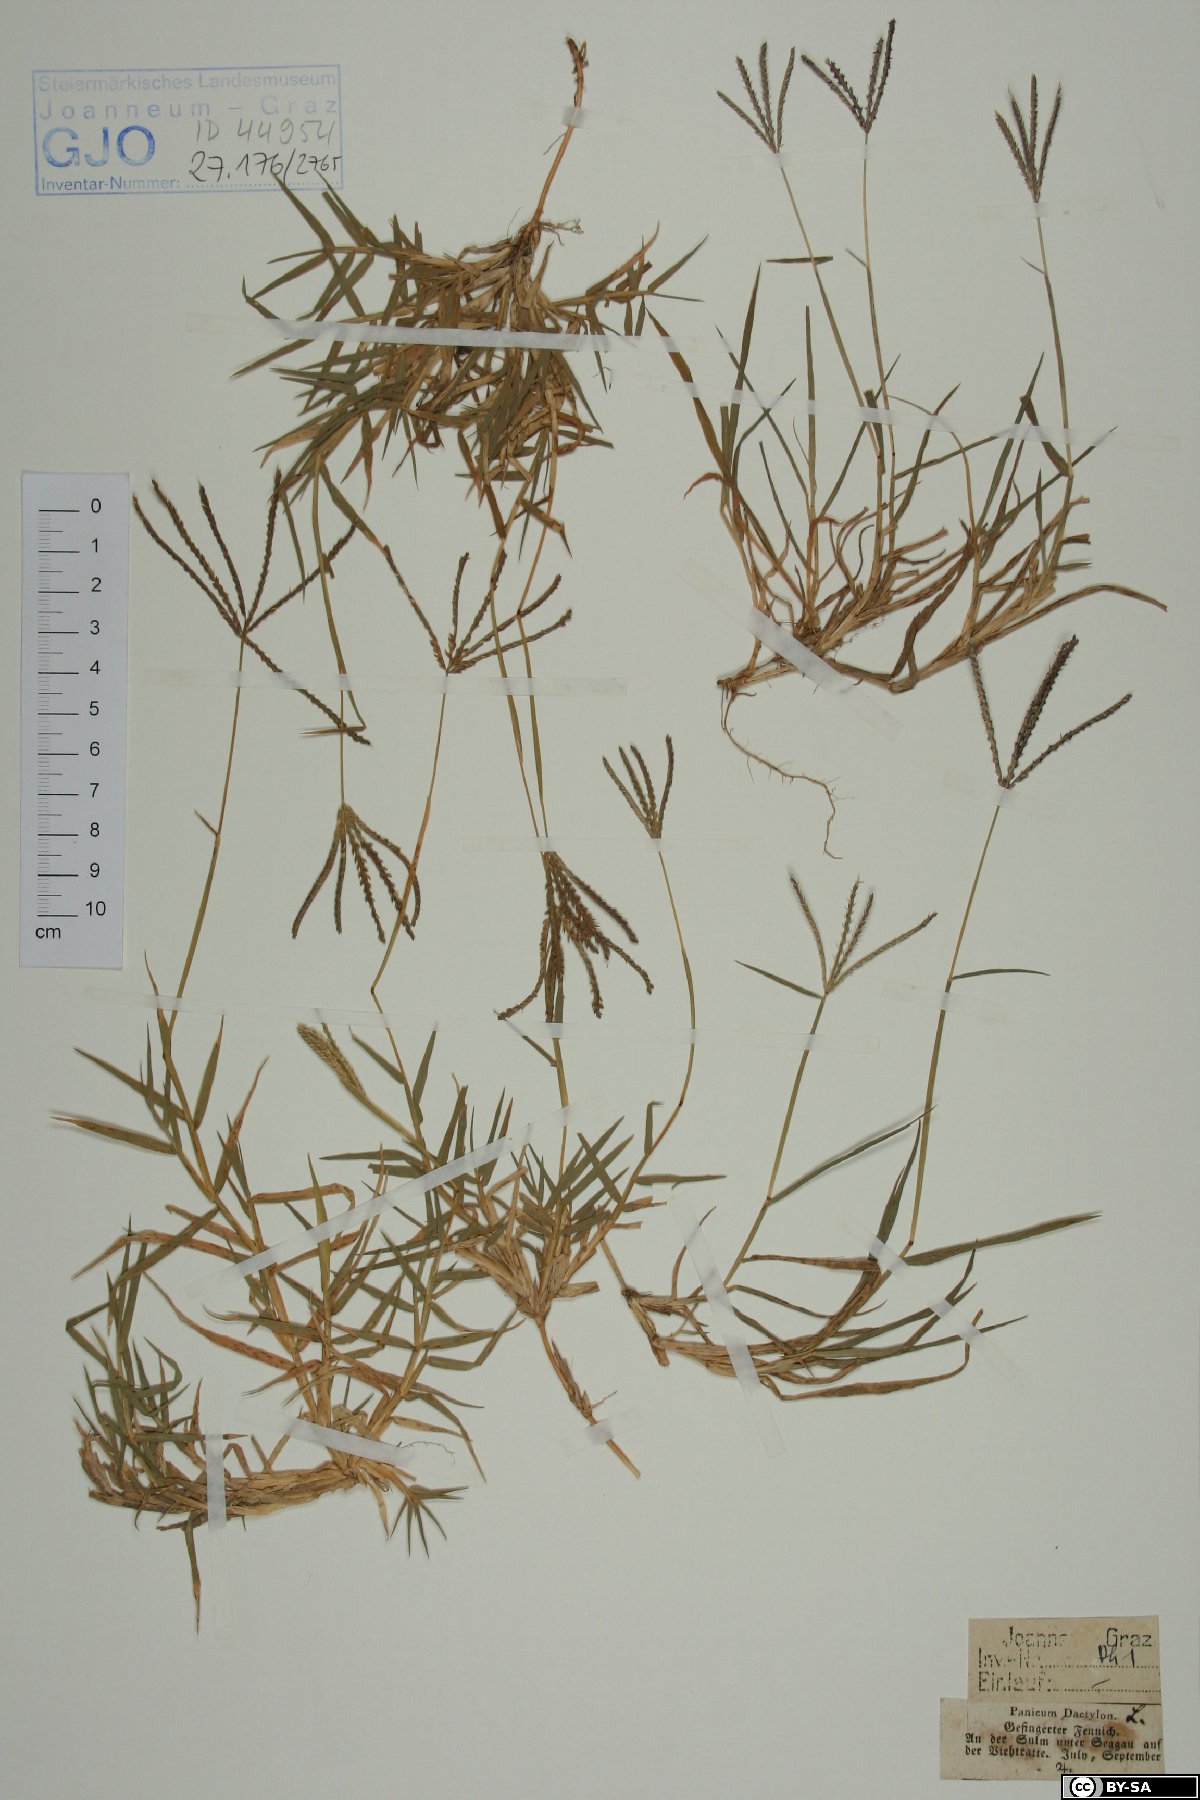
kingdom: Plantae
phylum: Tracheophyta
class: Liliopsida
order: Poales
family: Poaceae
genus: Cynodon
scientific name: Cynodon dactylon
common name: Bermuda grass
